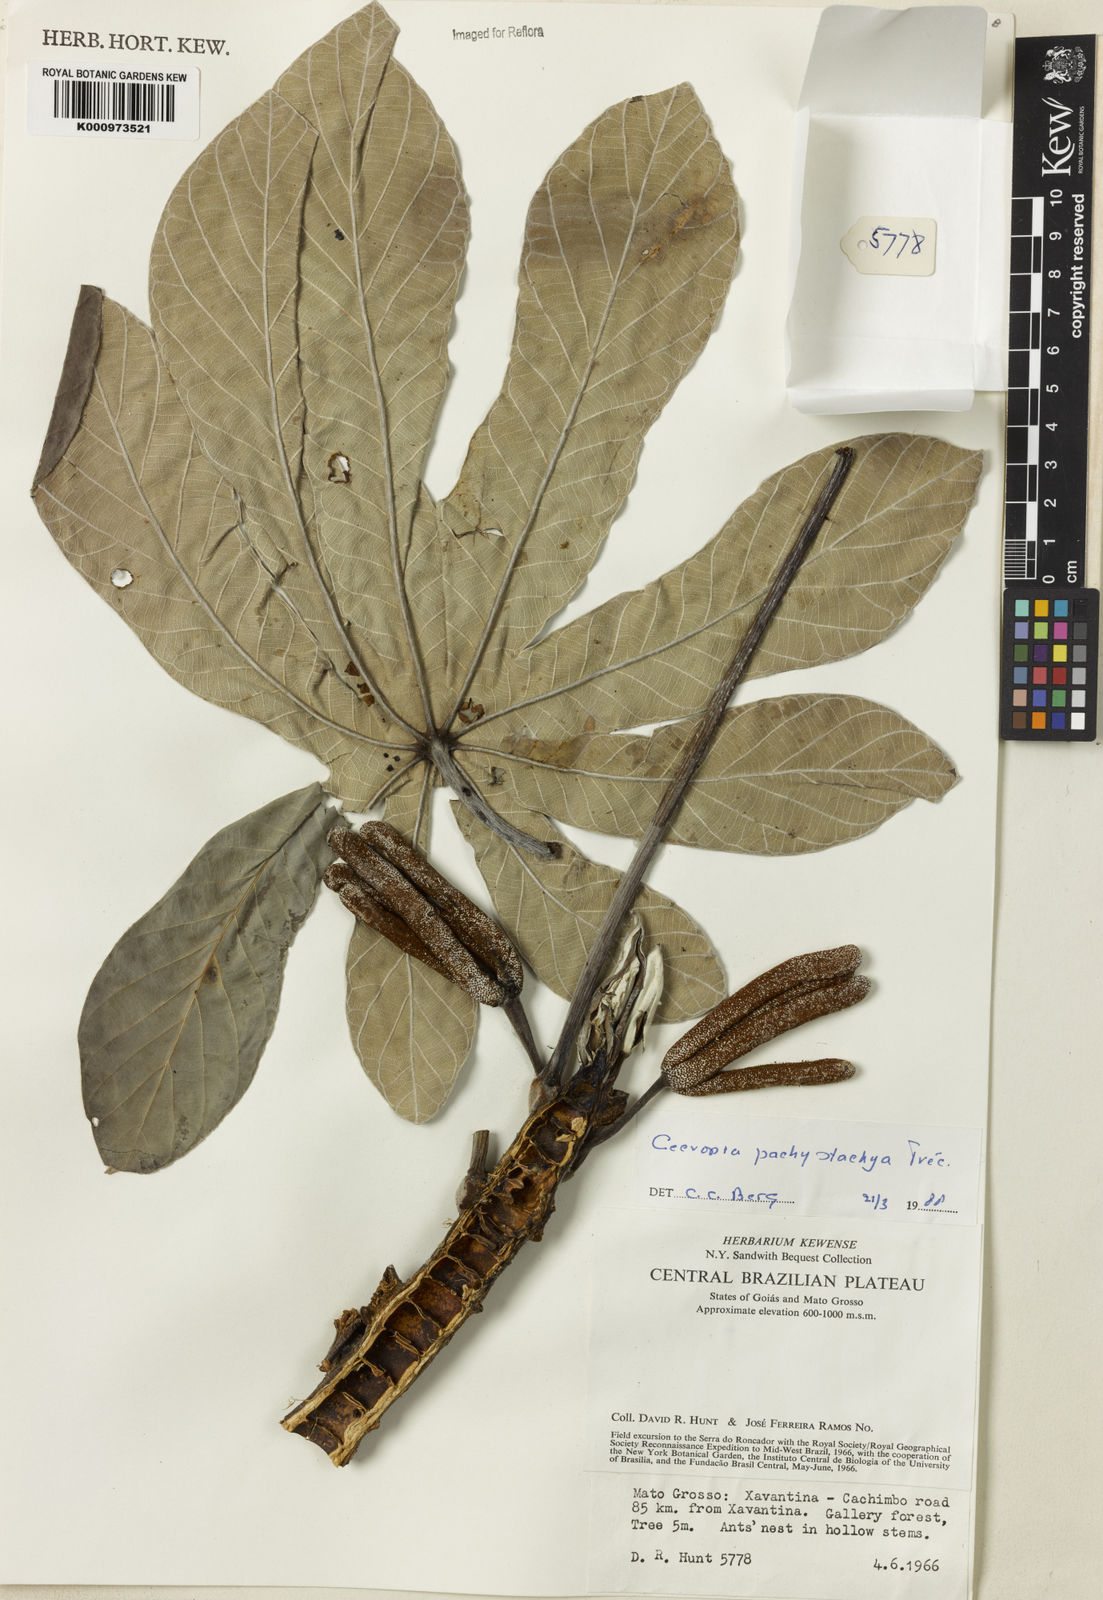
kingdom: Plantae
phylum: Tracheophyta
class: Magnoliopsida
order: Rosales
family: Urticaceae
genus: Cecropia
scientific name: Cecropia
